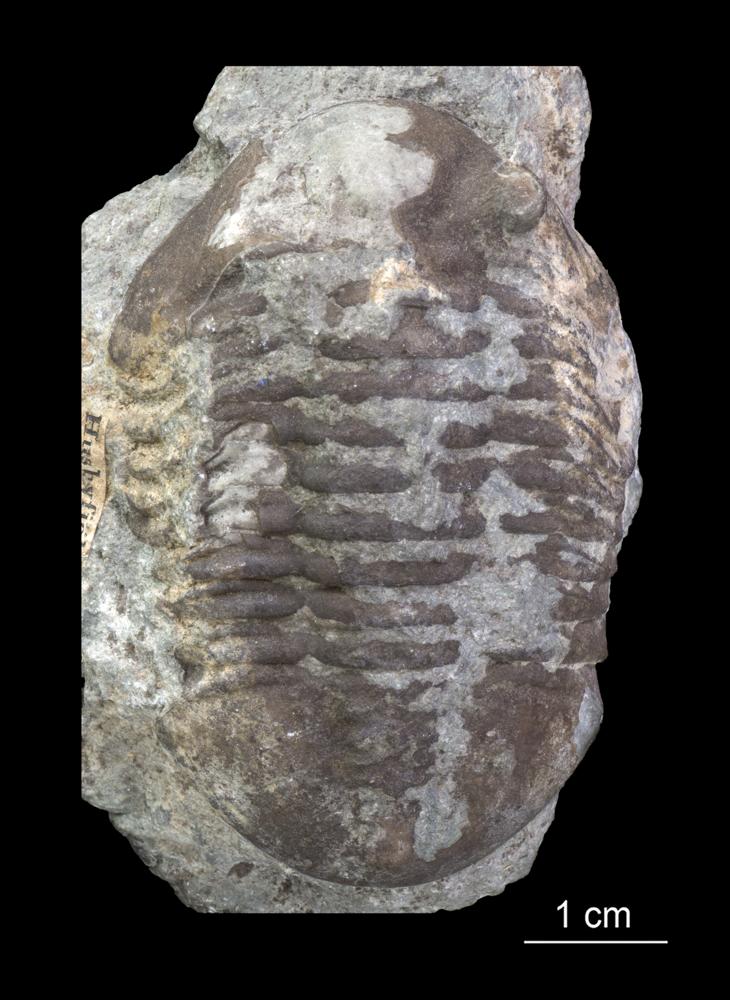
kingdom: Animalia
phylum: Arthropoda
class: Trilobita
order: Asaphida
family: Asaphidae
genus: Asaphus
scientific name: Asaphus expansus
